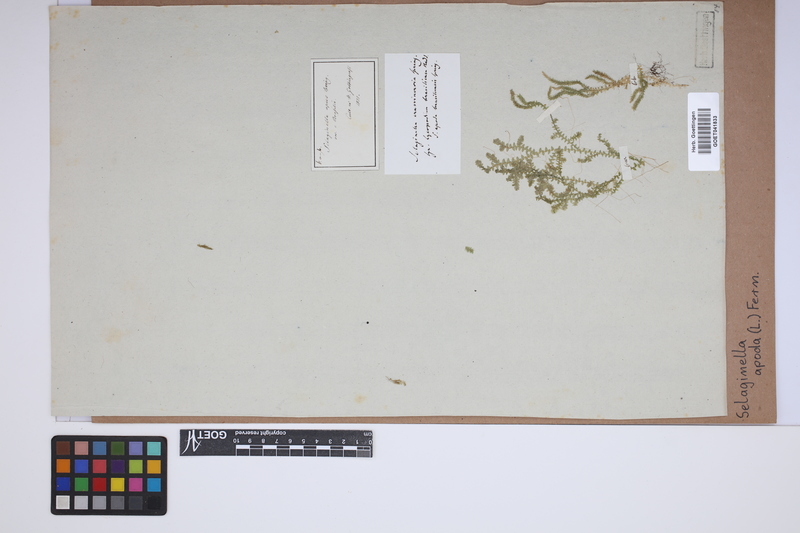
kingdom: Plantae
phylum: Tracheophyta
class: Lycopodiopsida
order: Selaginellales
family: Selaginellaceae
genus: Selaginella
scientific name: Selaginella apoda
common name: Creeping spikemoss
